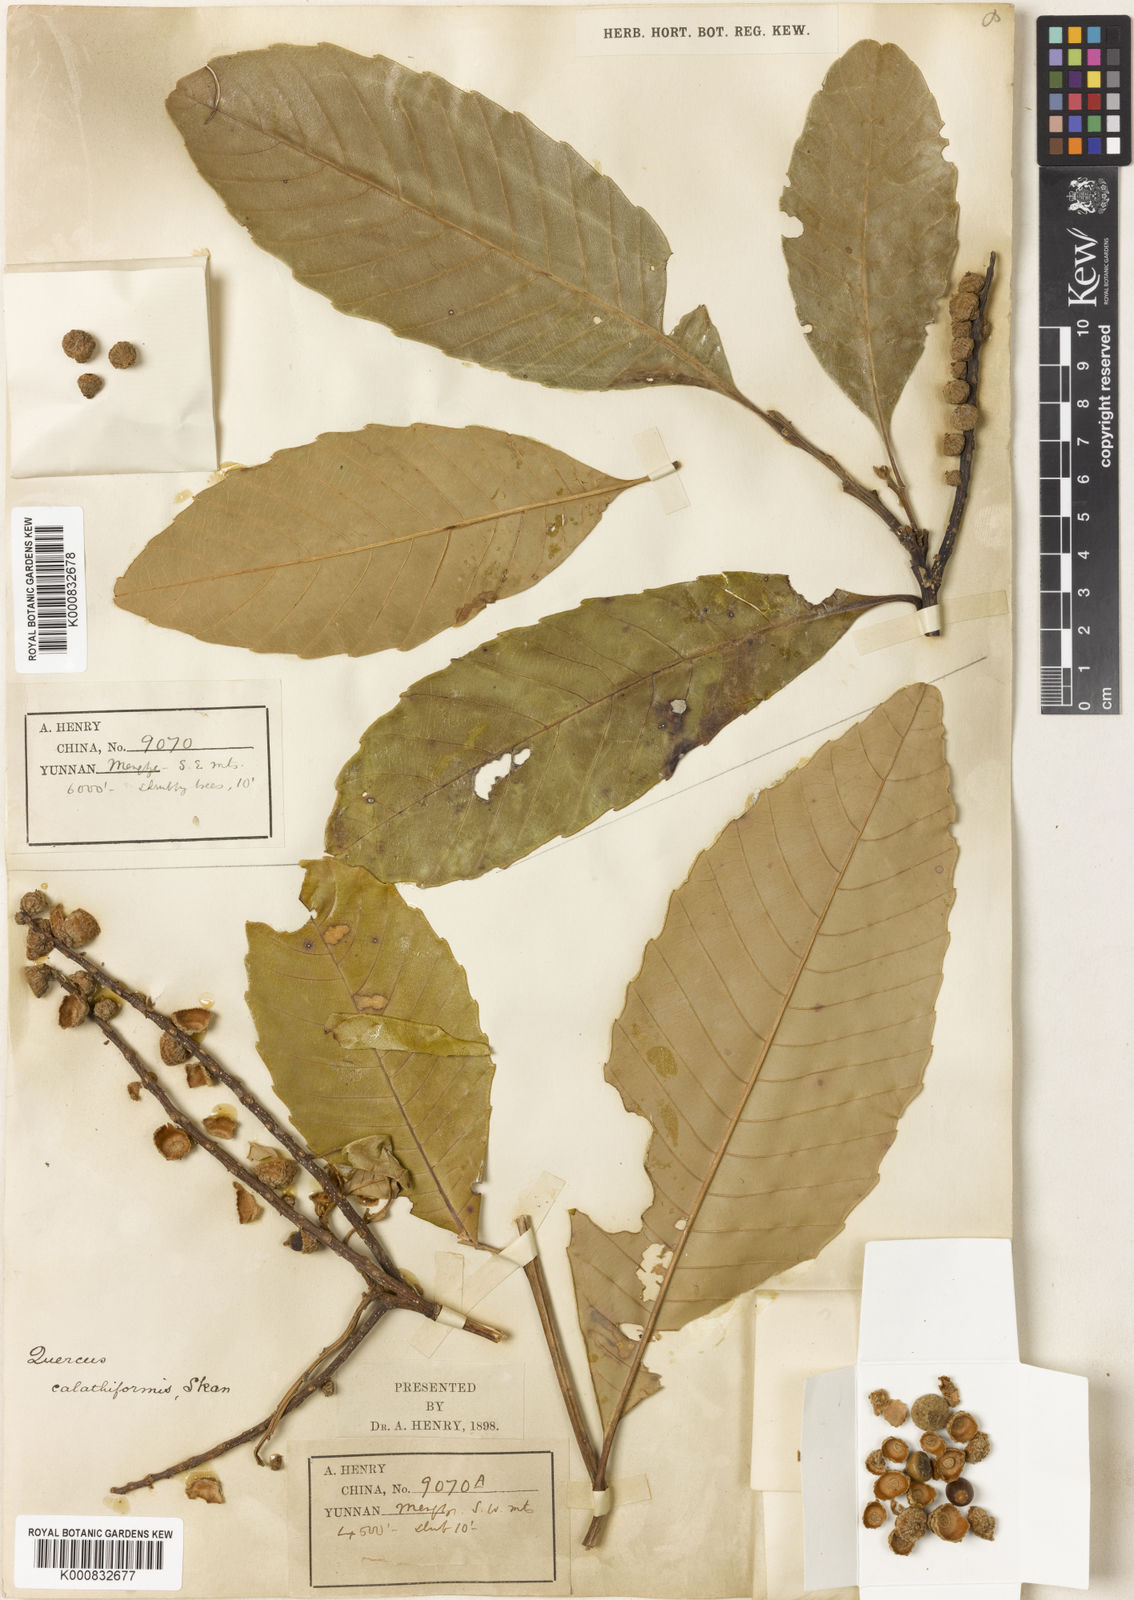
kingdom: Plantae
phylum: Tracheophyta
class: Magnoliopsida
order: Fagales
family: Fagaceae
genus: Castanopsis
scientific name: Castanopsis calathiformis
